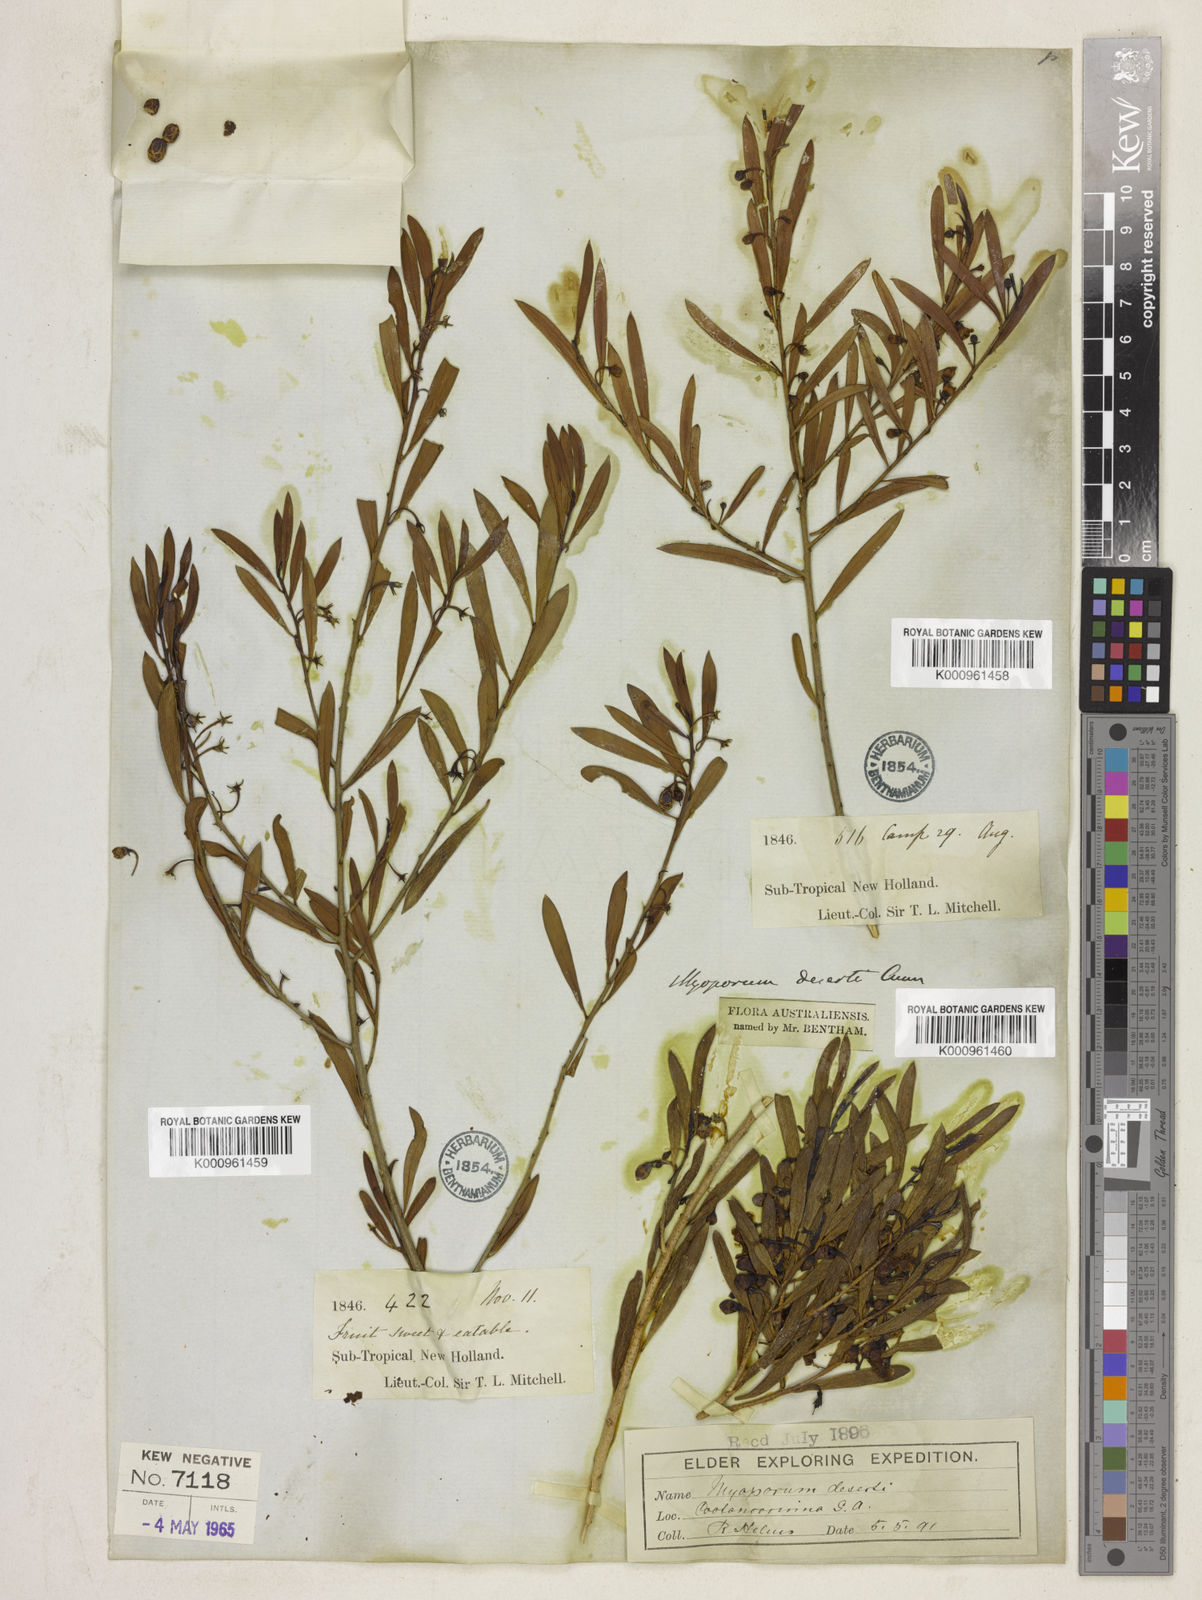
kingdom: Plantae
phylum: Tracheophyta
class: Magnoliopsida
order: Lamiales
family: Scrophulariaceae
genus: Eremophila
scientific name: Eremophila deserti
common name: Ellangowan-poisonbush
